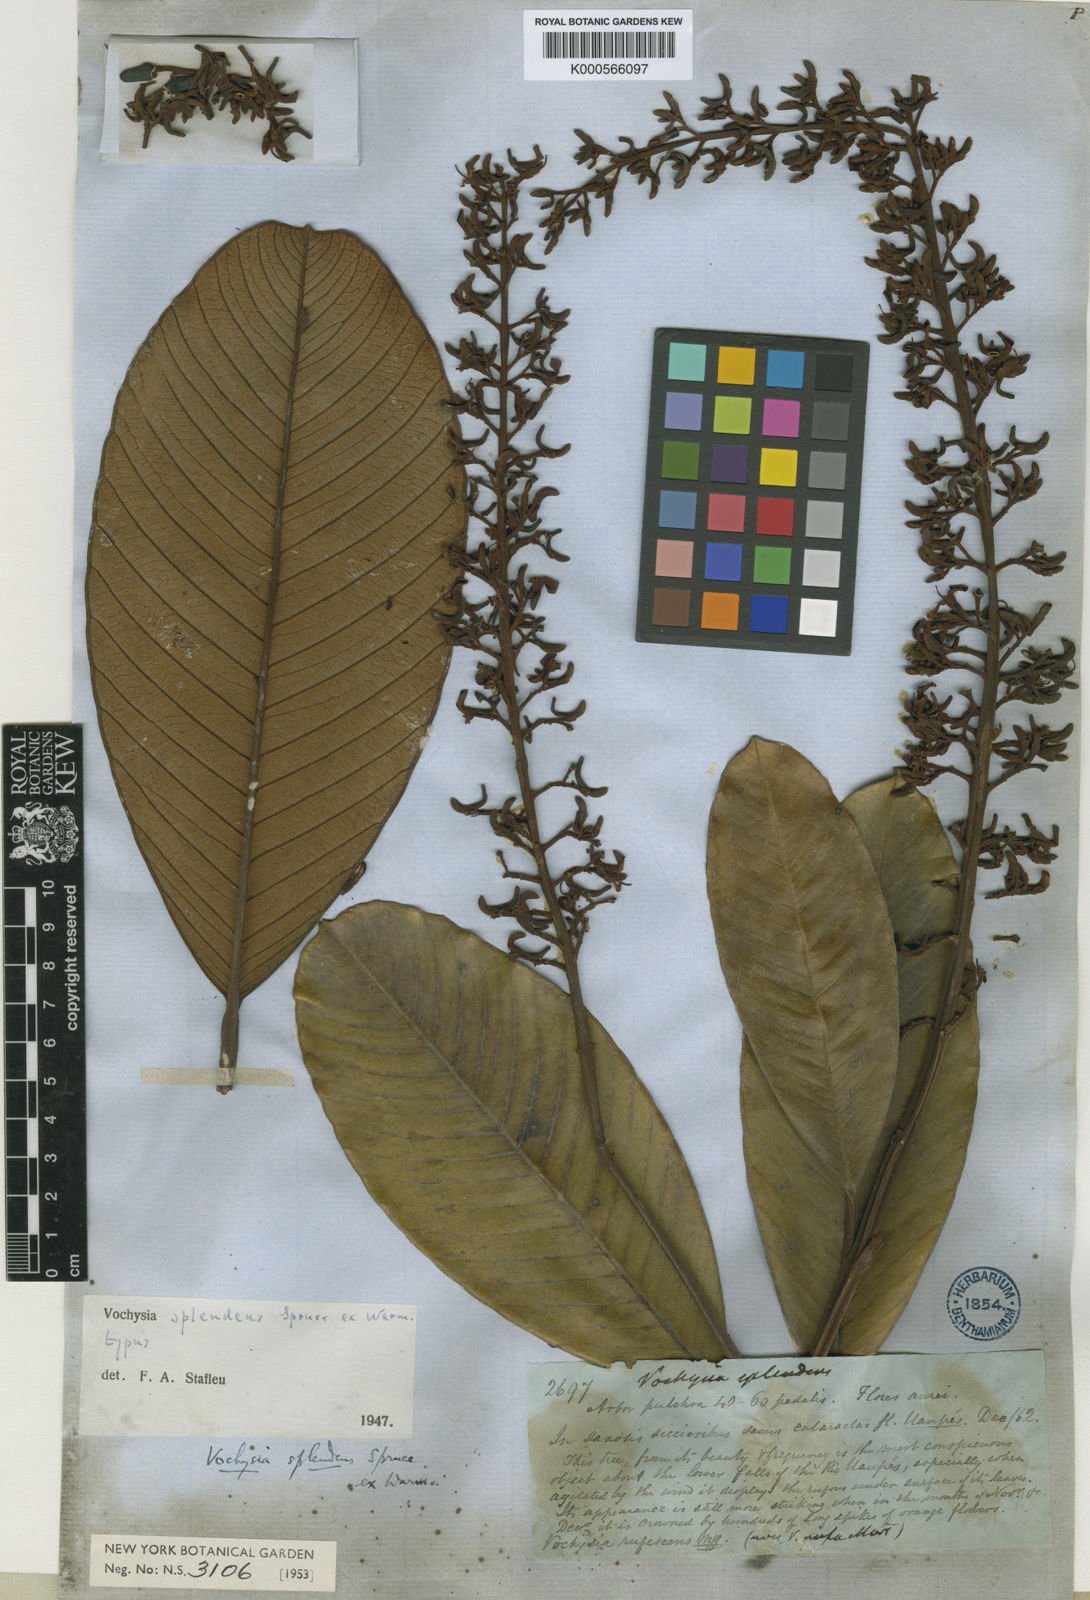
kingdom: Plantae
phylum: Tracheophyta
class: Magnoliopsida
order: Myrtales
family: Vochysiaceae
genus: Vochysia
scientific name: Vochysia splendens
